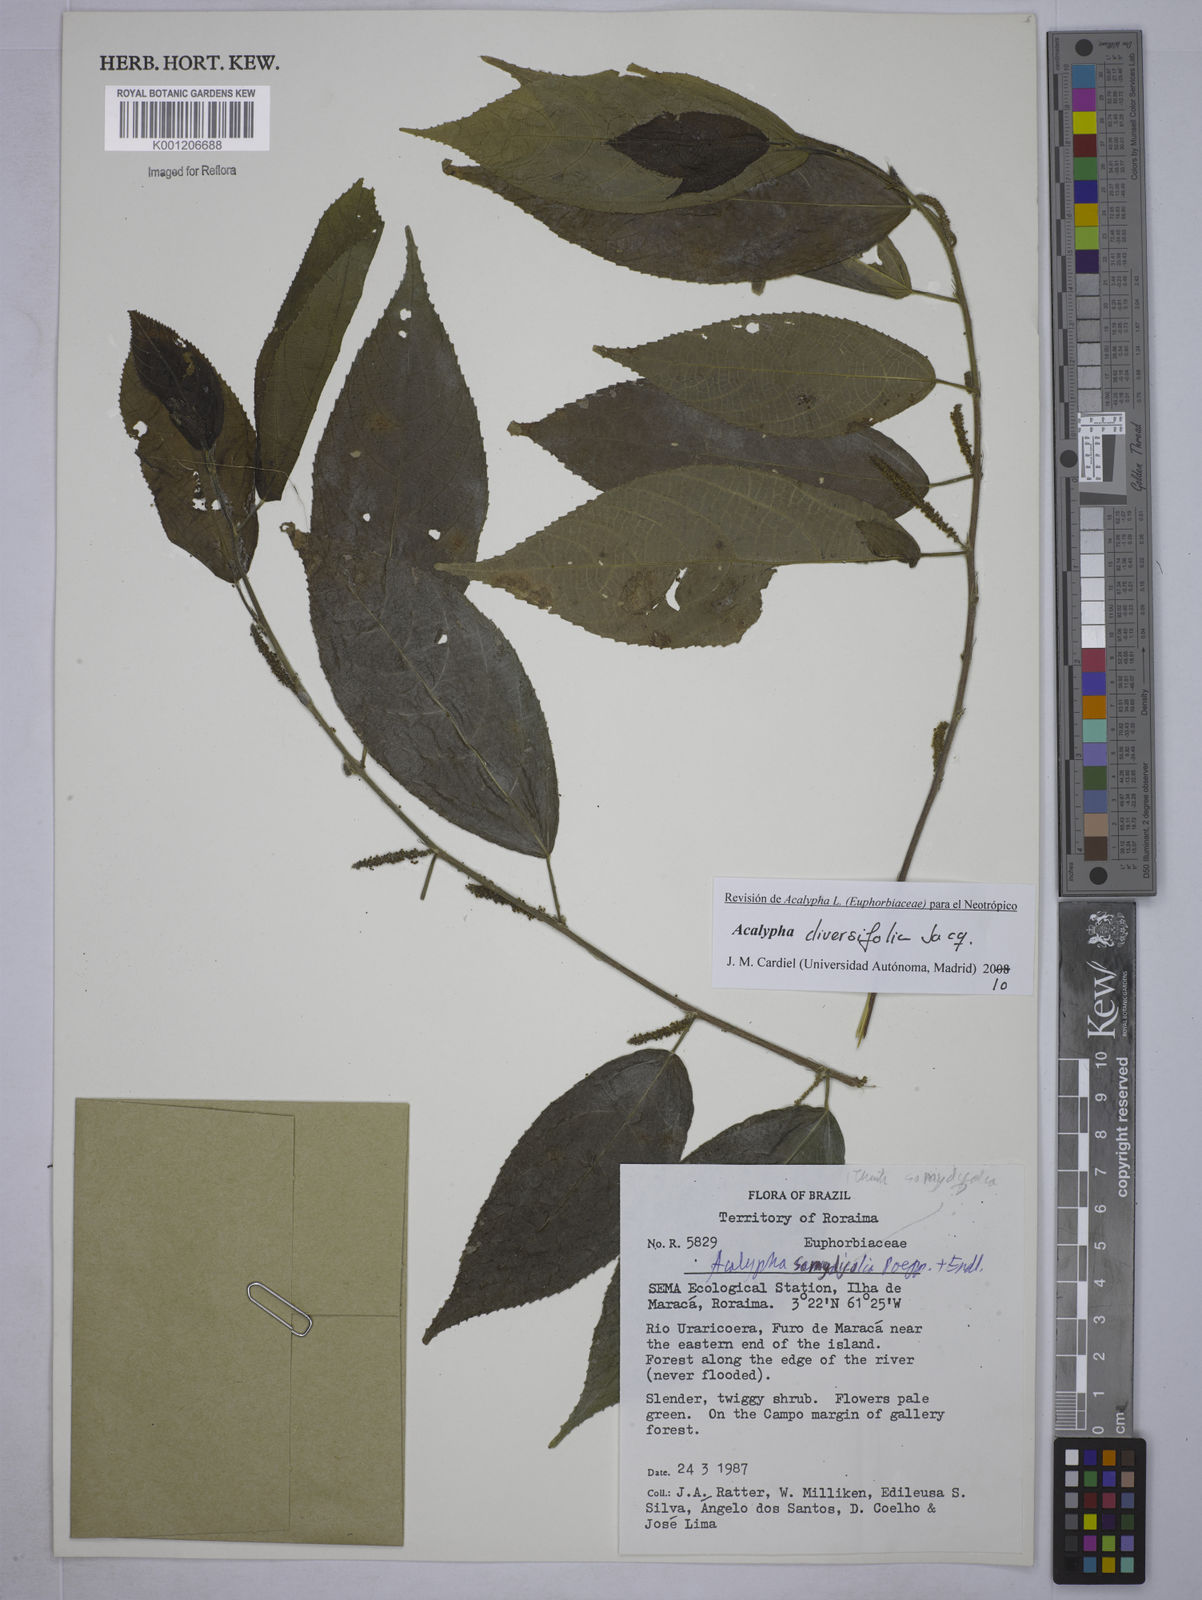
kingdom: Plantae
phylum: Tracheophyta
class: Magnoliopsida
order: Malpighiales
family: Euphorbiaceae
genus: Acalypha
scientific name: Acalypha diversifolia
